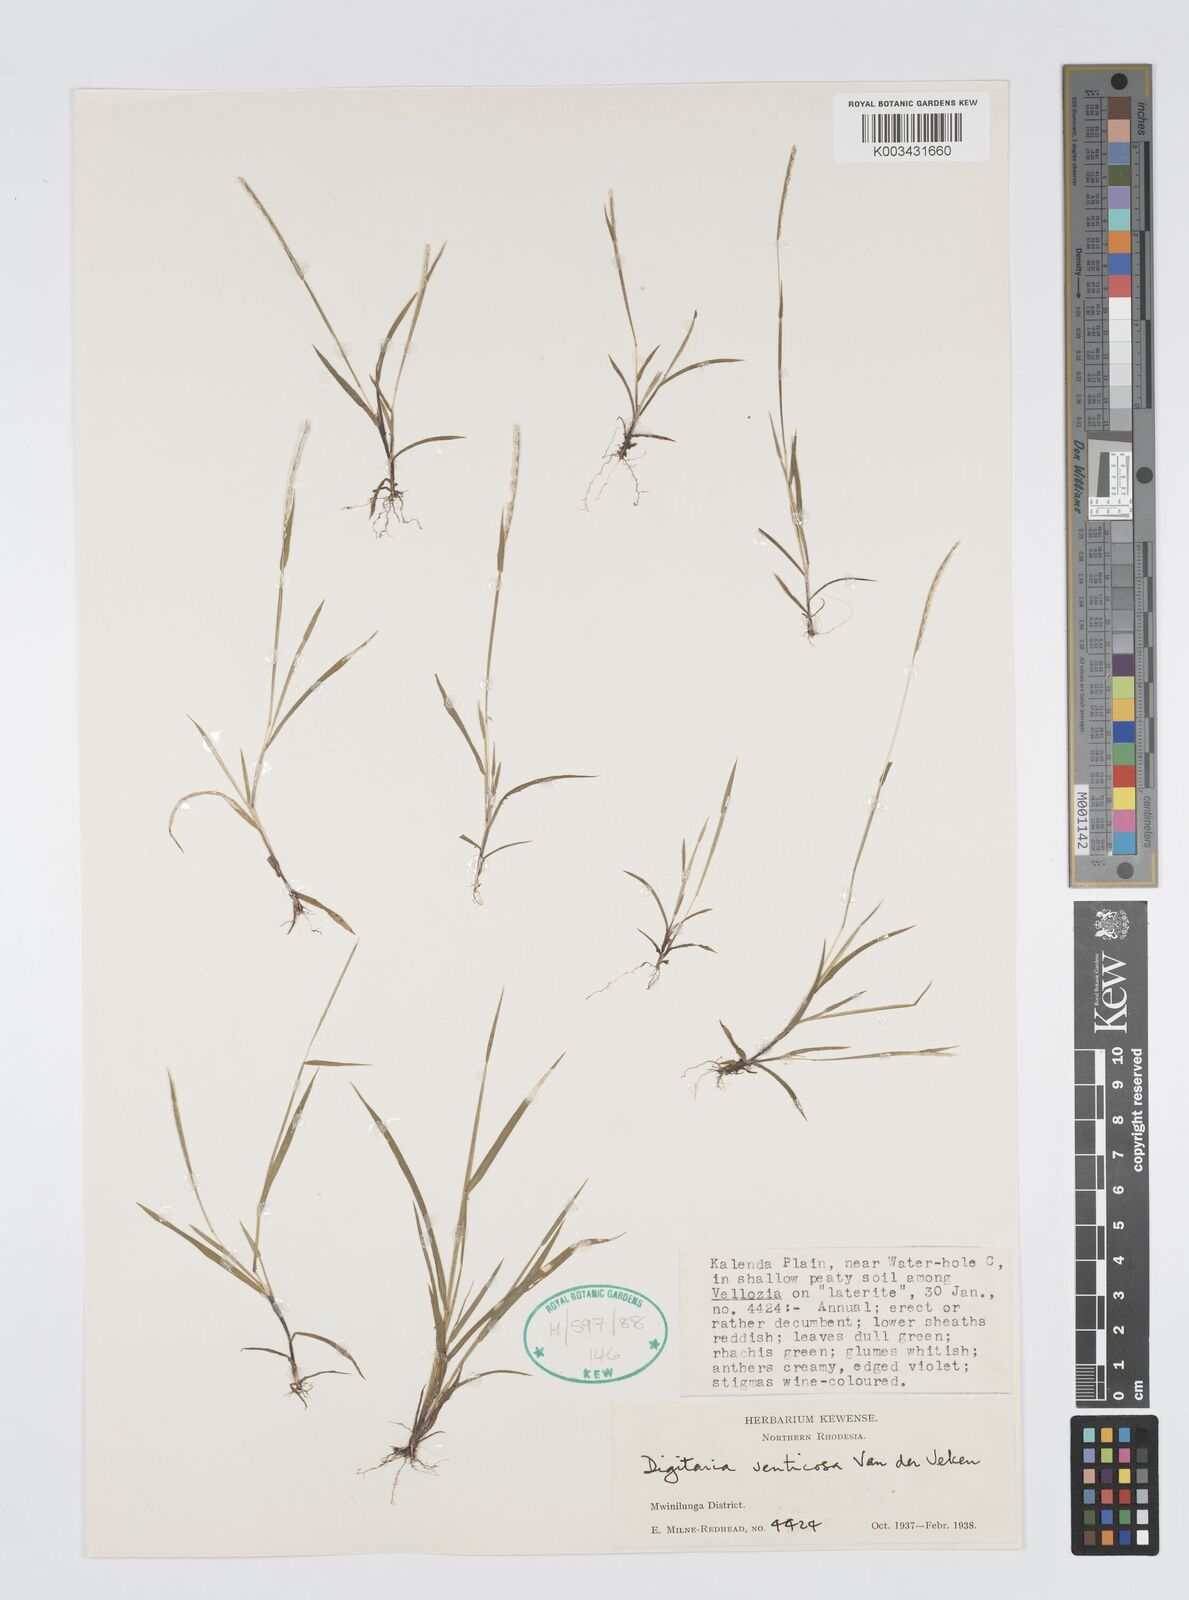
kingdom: Plantae
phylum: Tracheophyta
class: Liliopsida
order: Poales
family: Poaceae
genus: Digitaria
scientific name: Digitaria ventriosa
